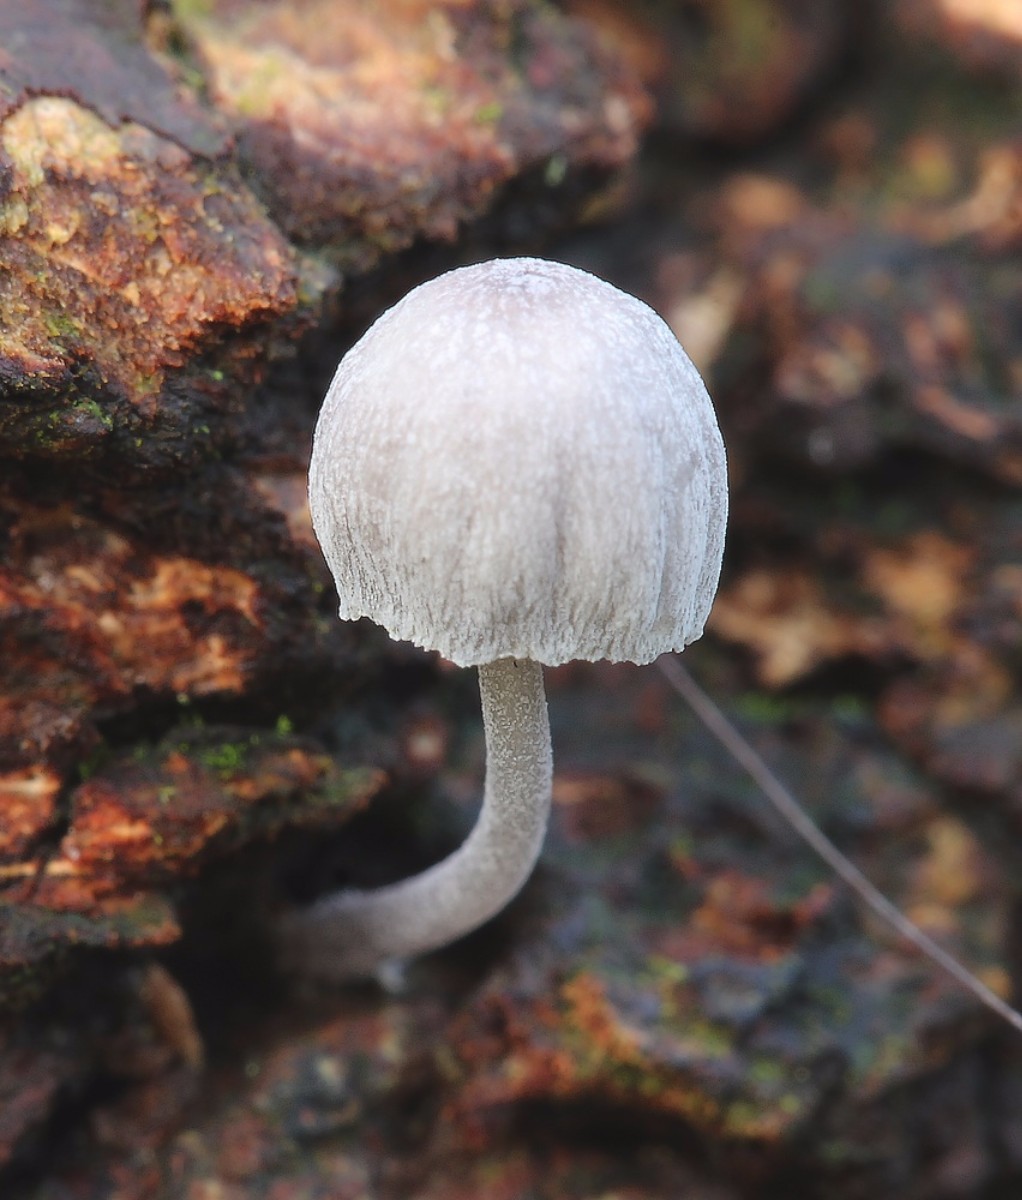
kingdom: Fungi
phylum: Basidiomycota
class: Agaricomycetes
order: Agaricales
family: Mycenaceae
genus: Mycena
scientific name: Mycena pseudocorticola
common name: gråblå bark-huesvamp
